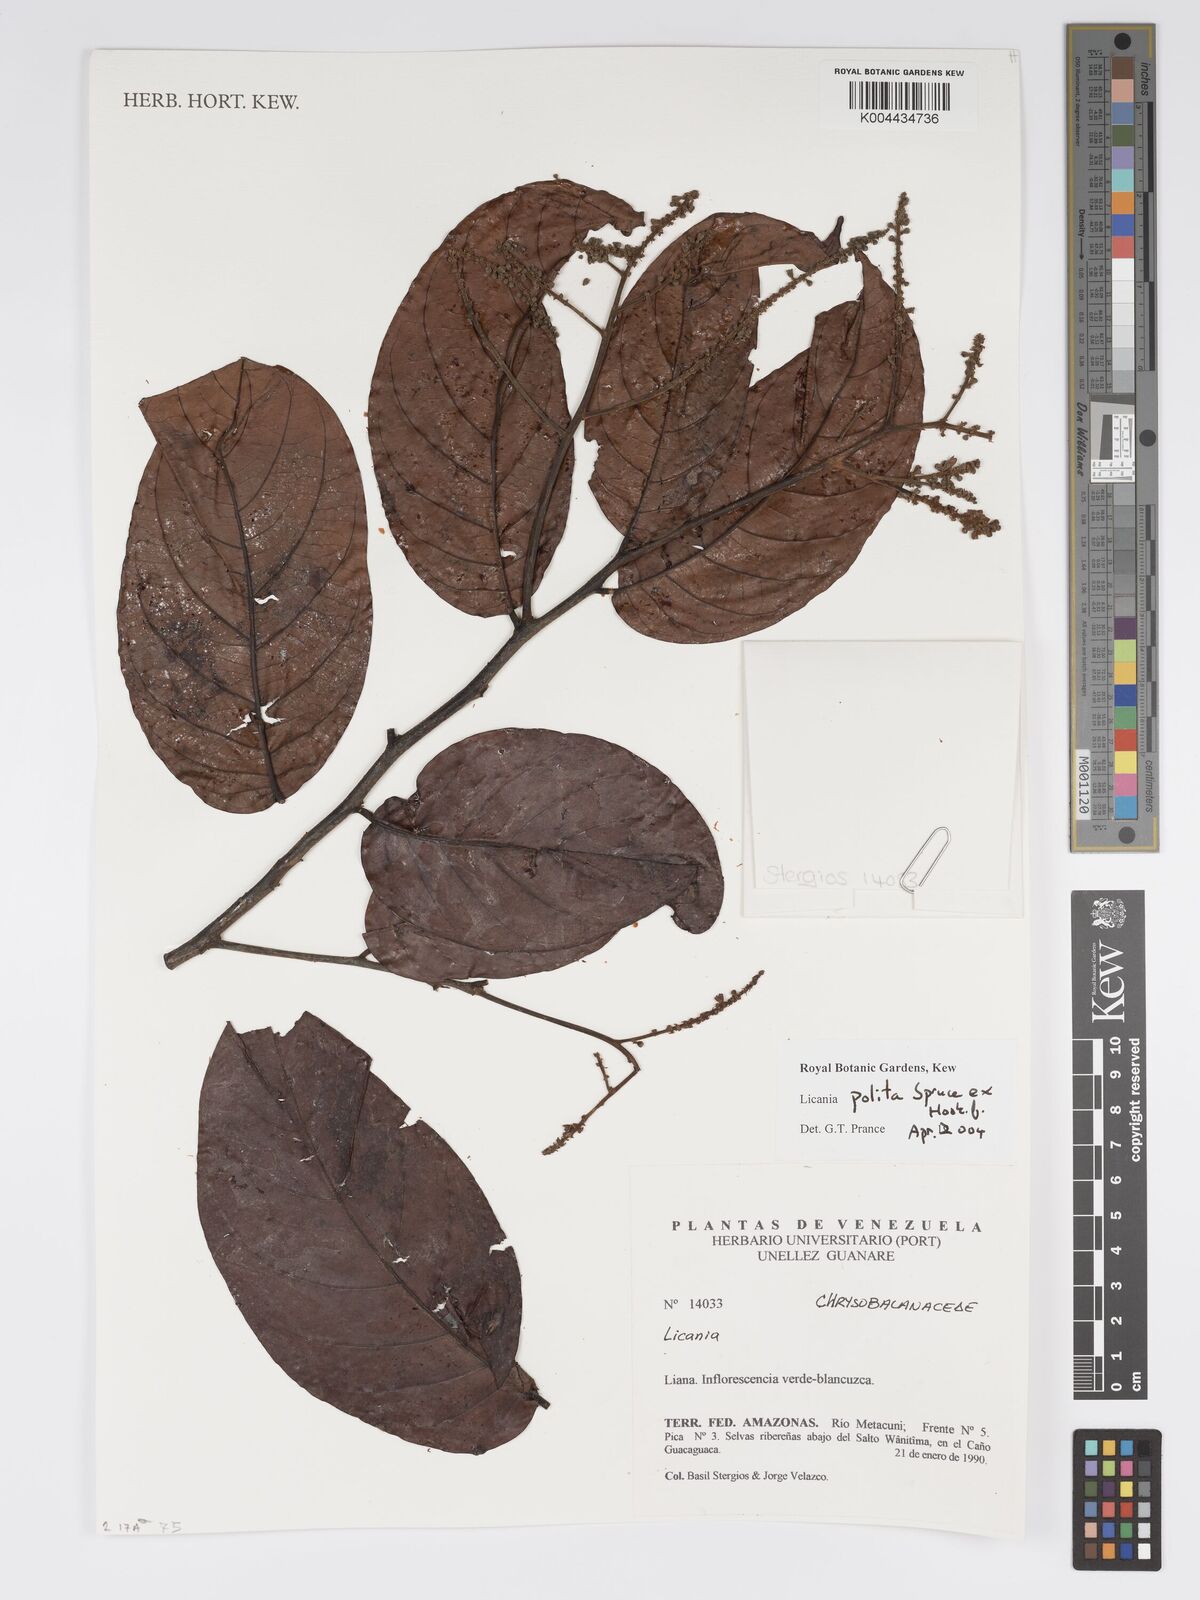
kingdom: Plantae
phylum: Tracheophyta
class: Magnoliopsida
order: Malpighiales
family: Chrysobalanaceae
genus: Licania
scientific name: Licania polita
